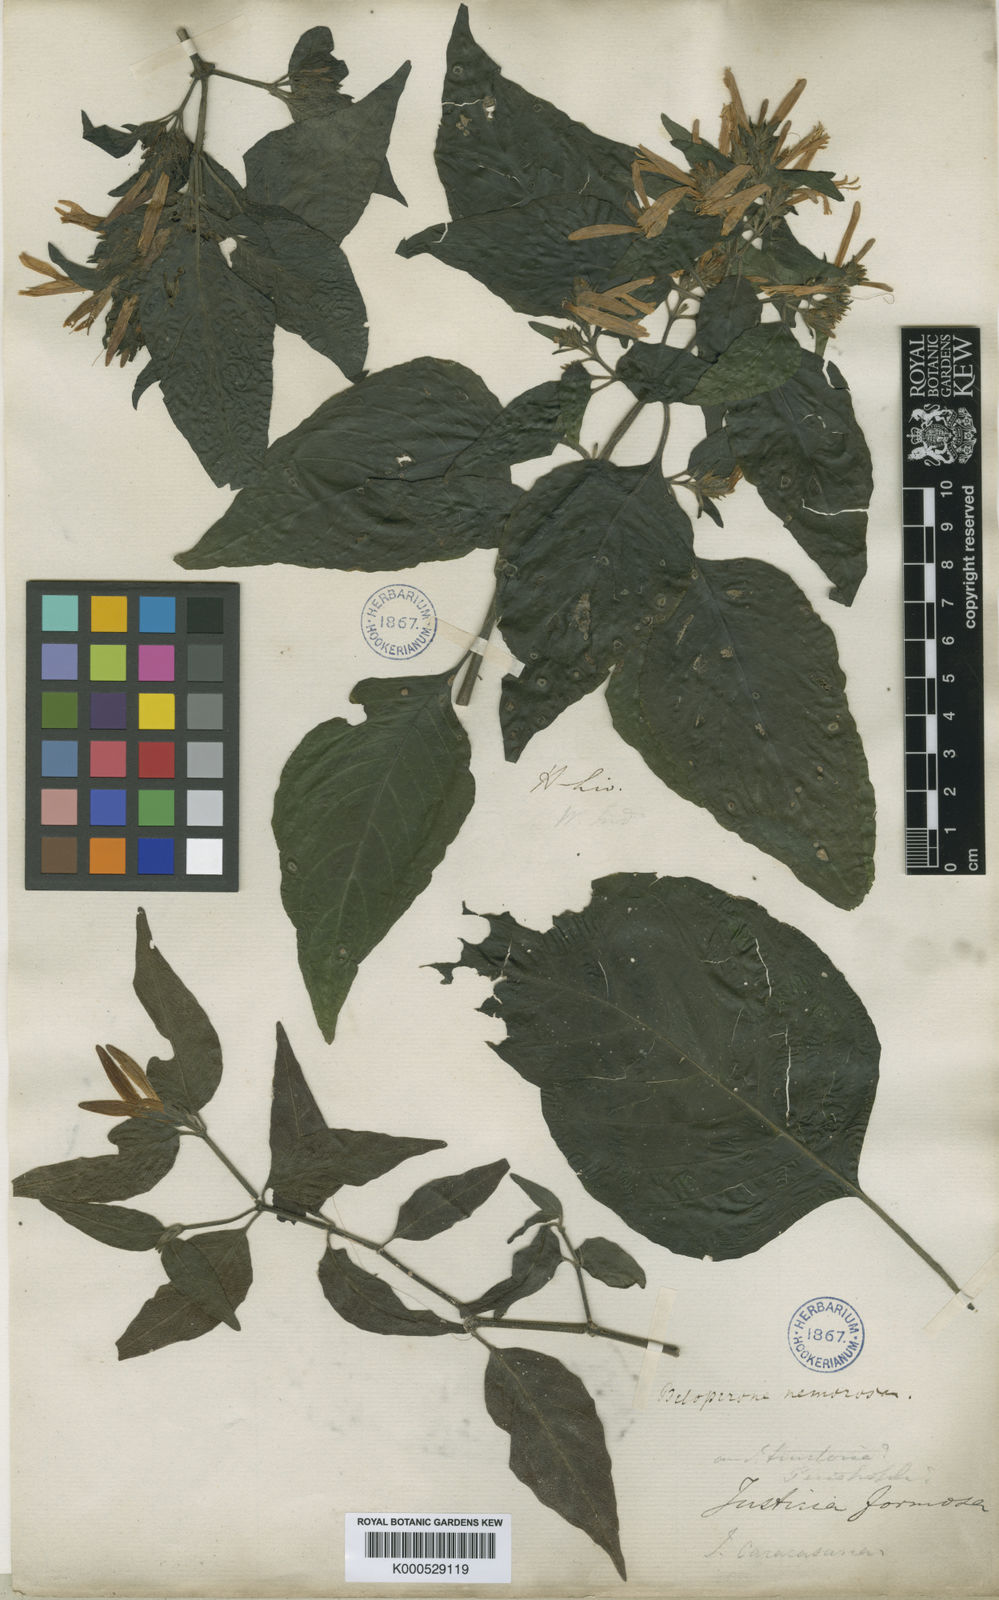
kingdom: Plantae
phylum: Tracheophyta
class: Magnoliopsida
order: Lamiales
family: Acanthaceae
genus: Justicia
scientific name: Justicia nemorosa
